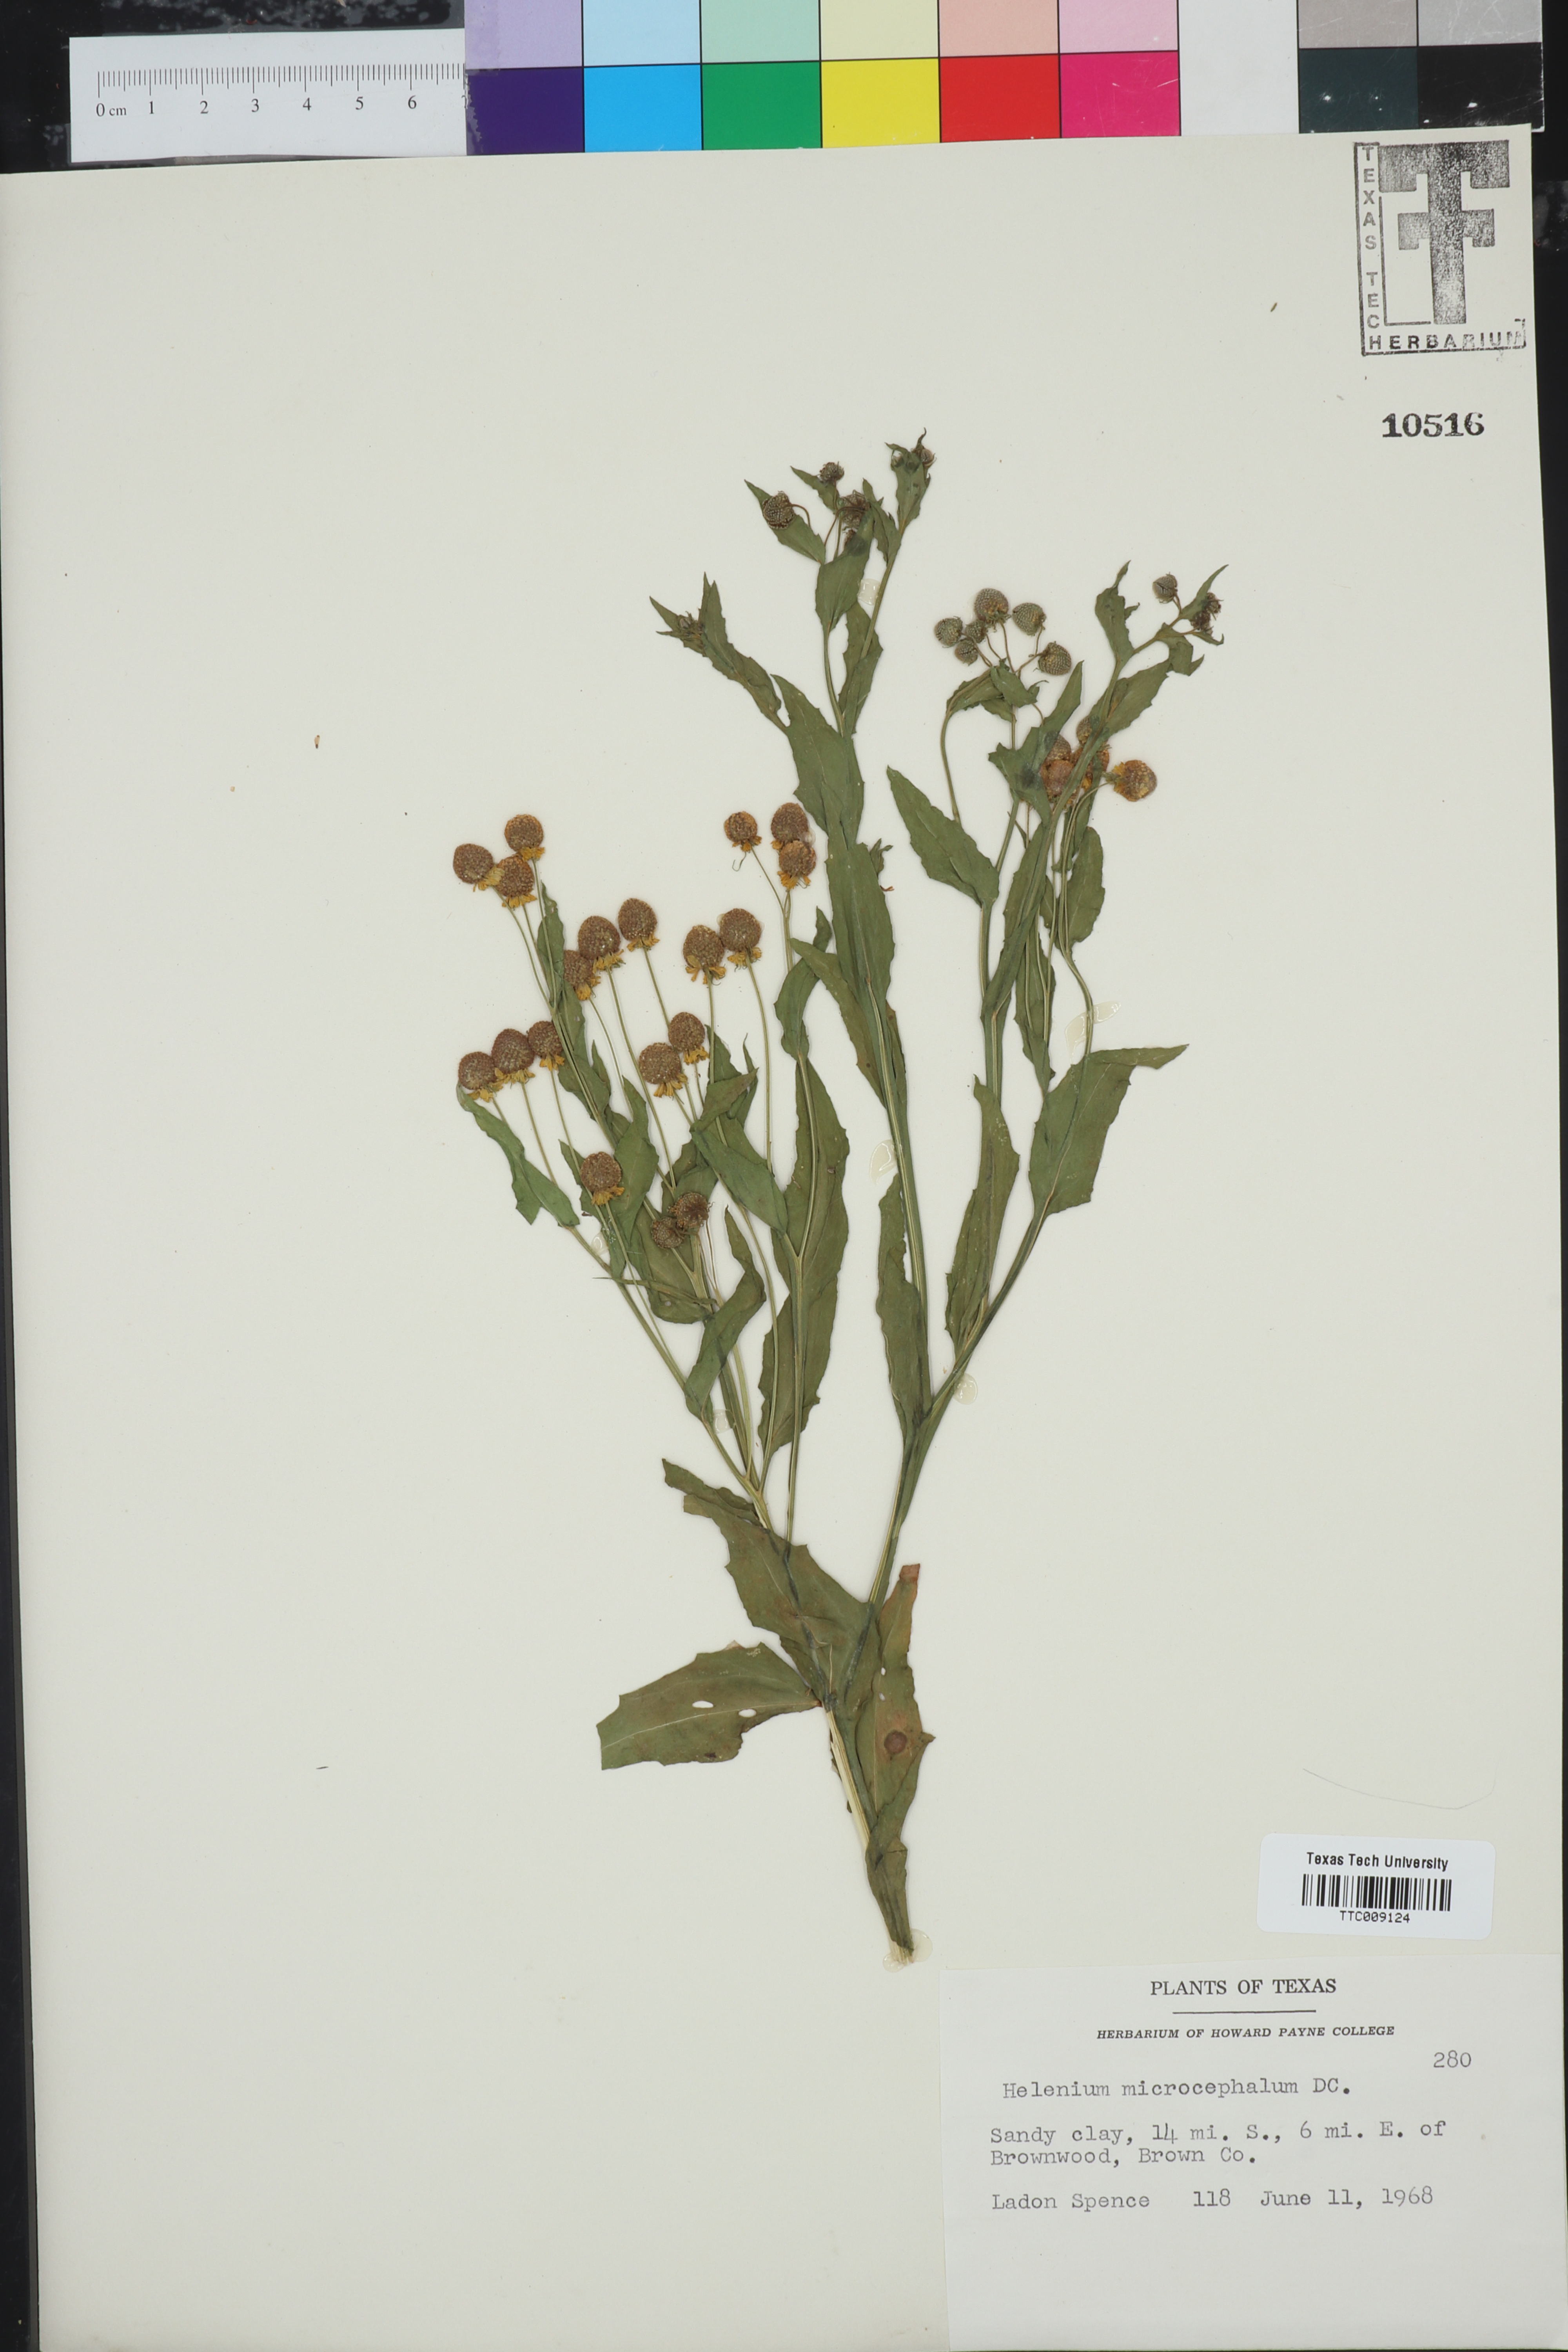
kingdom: Plantae
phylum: Tracheophyta
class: Magnoliopsida
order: Asterales
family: Asteraceae
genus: Helenium
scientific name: Helenium microcephalum
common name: Smallhead sneezeweed
